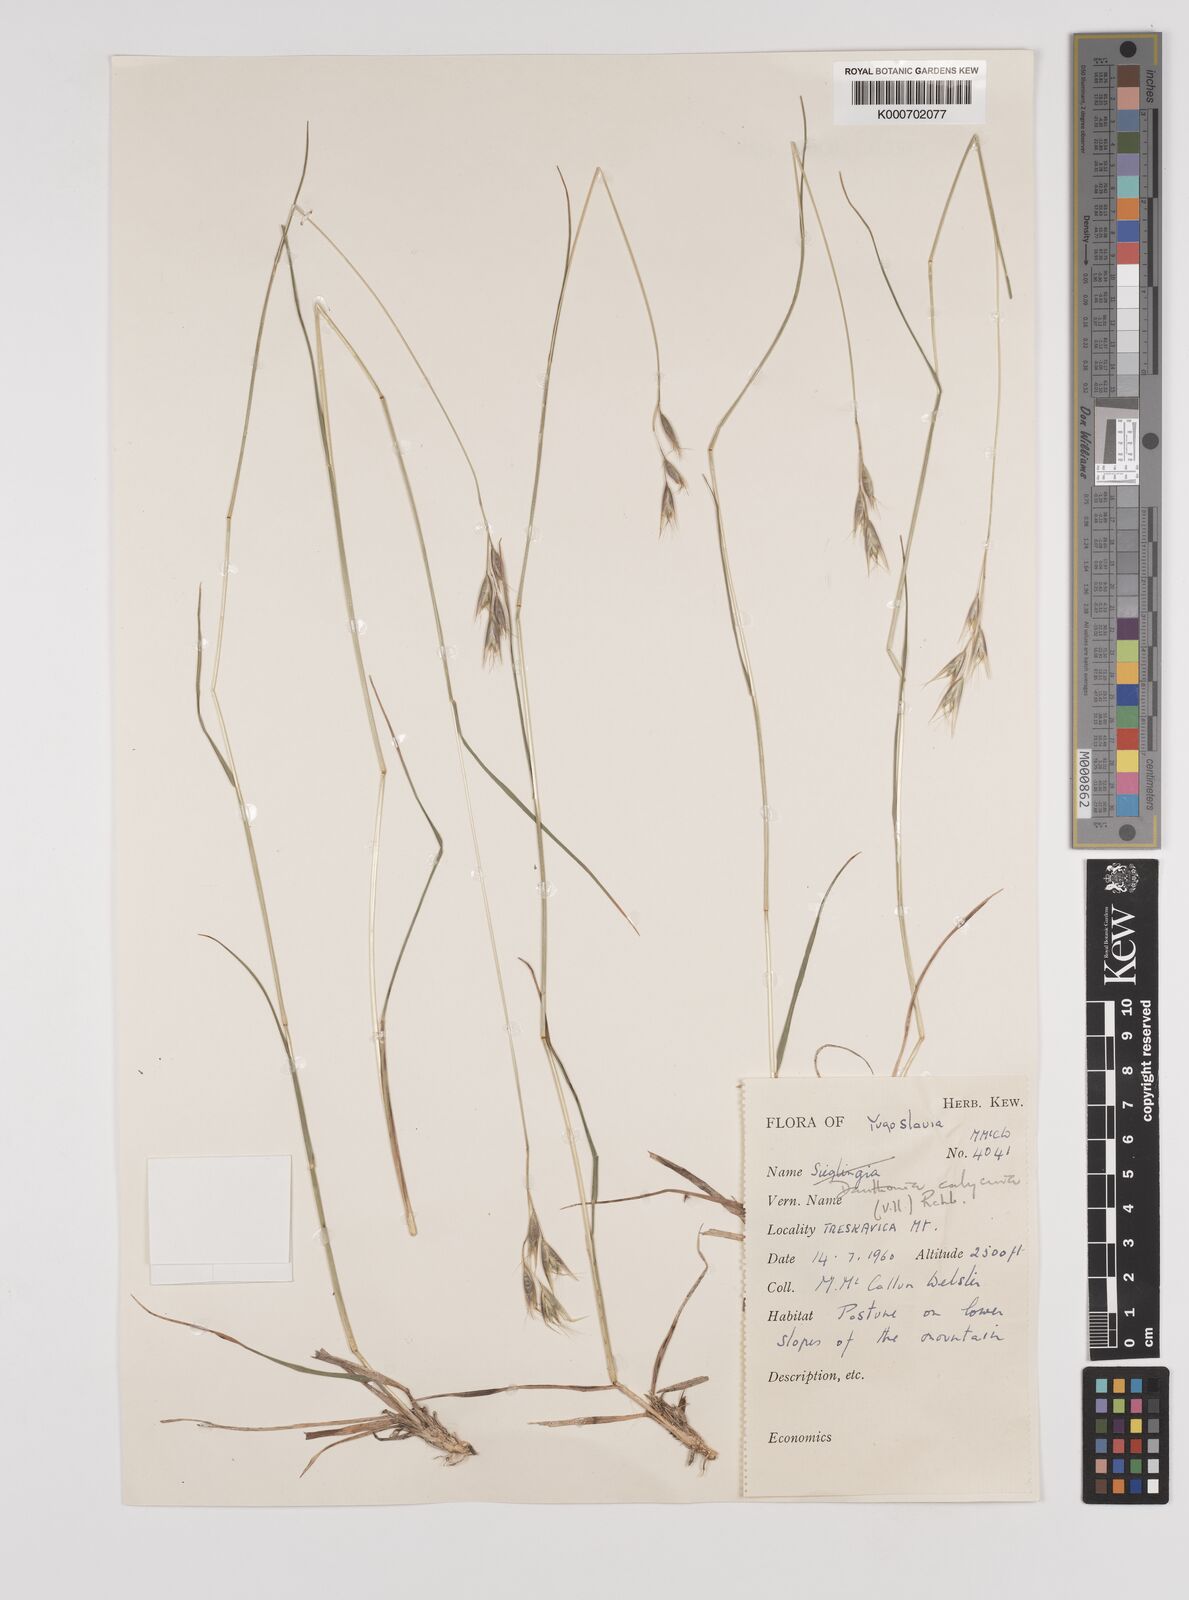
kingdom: Plantae
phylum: Tracheophyta
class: Liliopsida
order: Poales
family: Poaceae
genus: Danthonia
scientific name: Danthonia alpina
